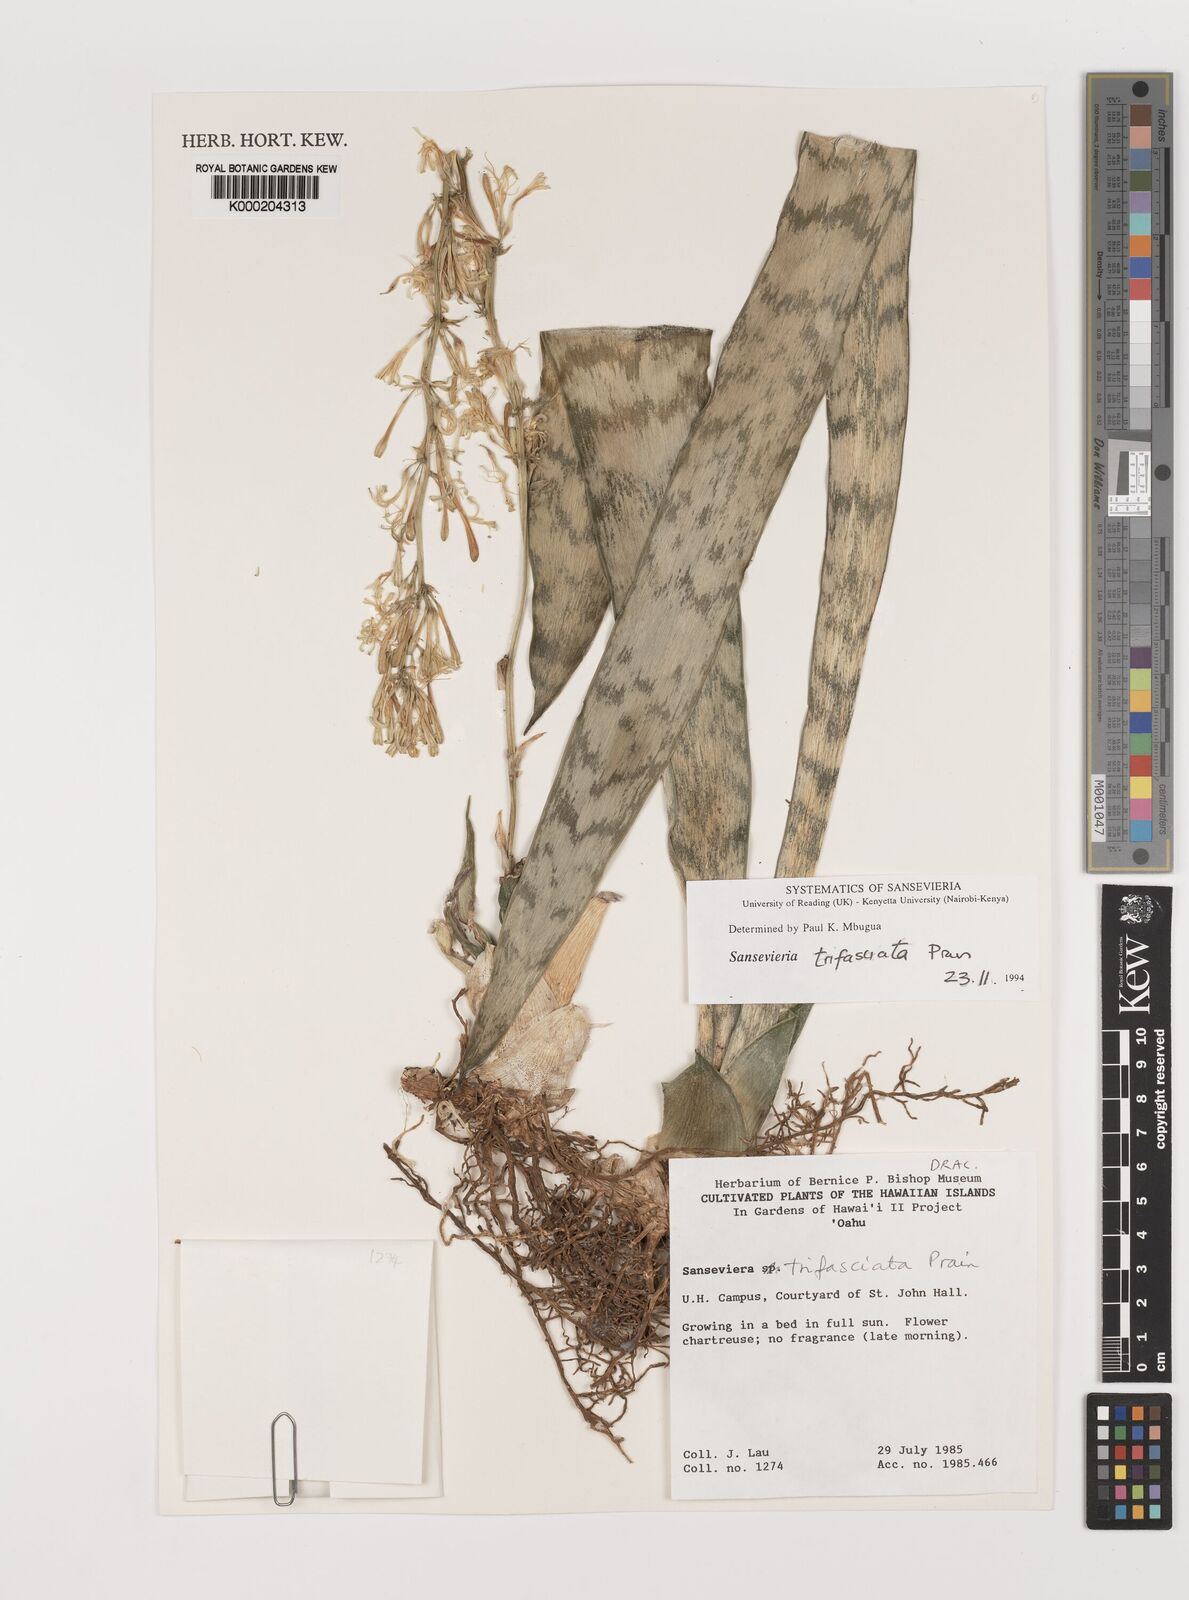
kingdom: Plantae
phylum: Tracheophyta
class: Liliopsida
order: Asparagales
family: Asparagaceae
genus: Dracaena
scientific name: Dracaena trifasciata
